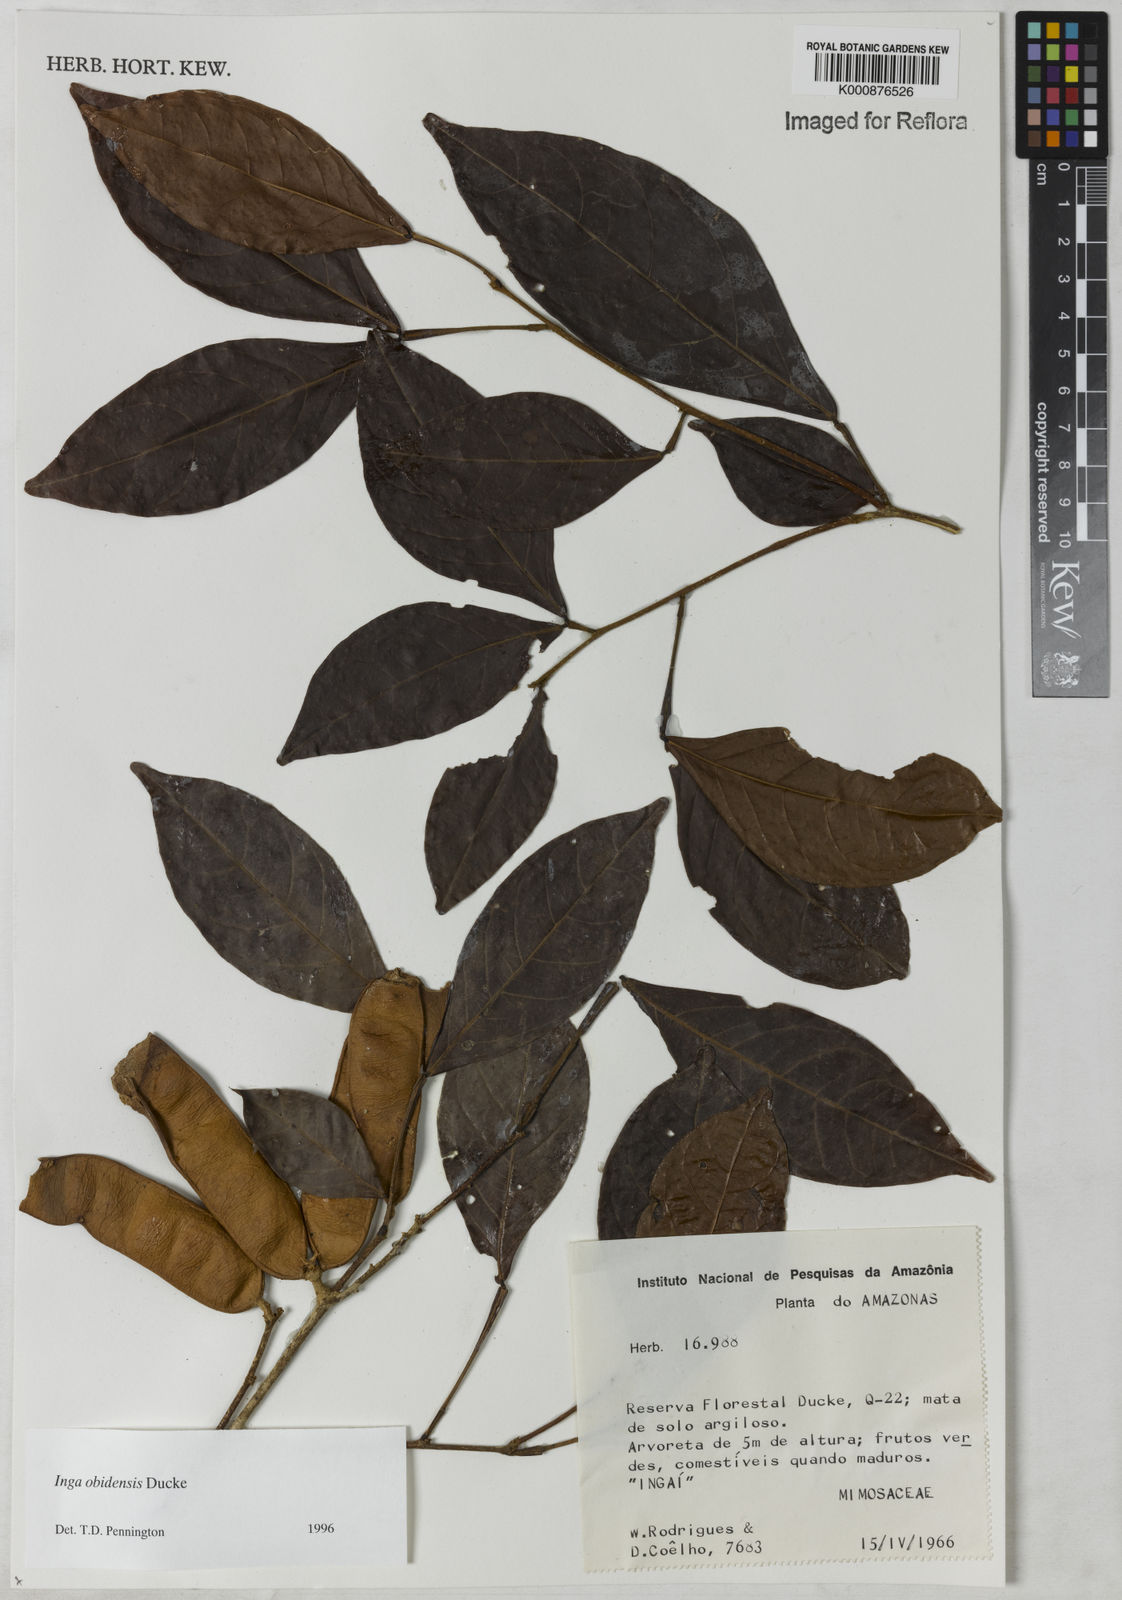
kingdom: Plantae
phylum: Tracheophyta
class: Magnoliopsida
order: Fabales
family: Fabaceae
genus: Inga
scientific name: Inga obidensis
